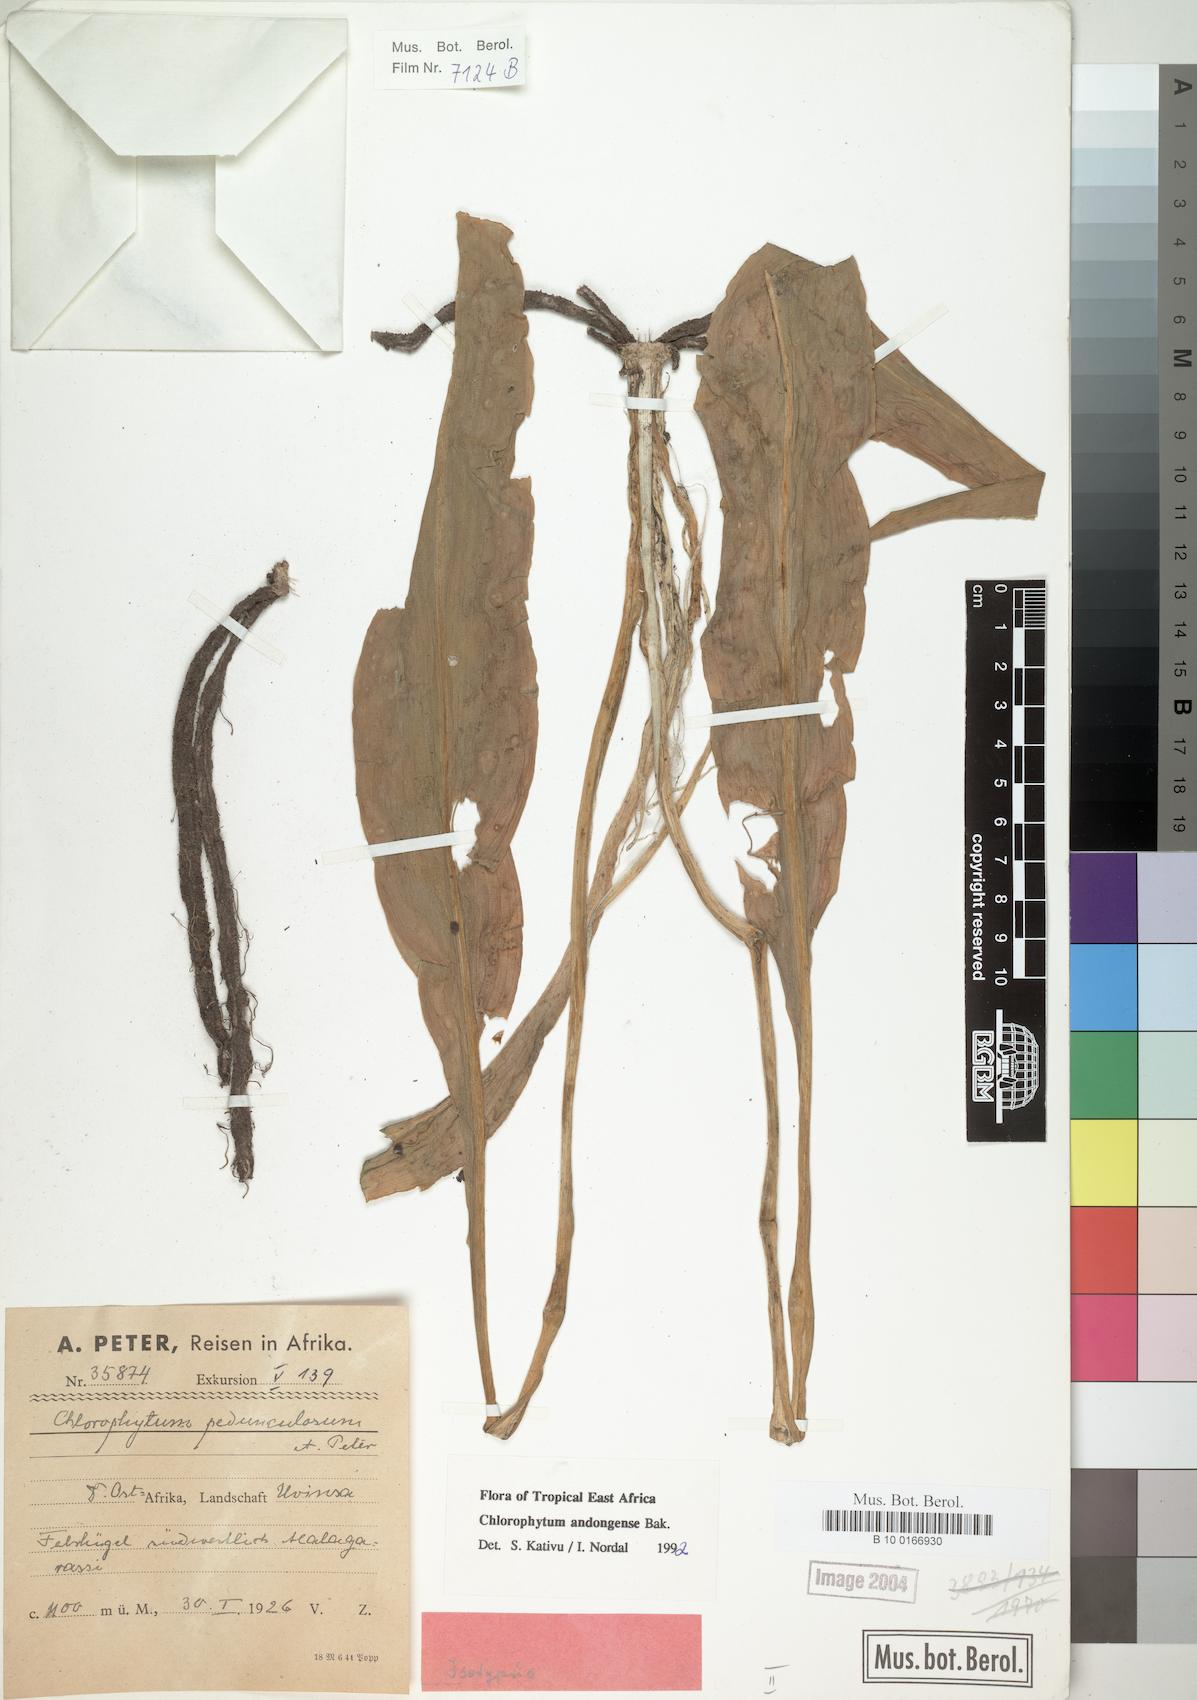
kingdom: Plantae
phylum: Tracheophyta
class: Liliopsida
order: Asparagales
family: Asparagaceae
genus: Chlorophytum
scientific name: Chlorophytum andongense
